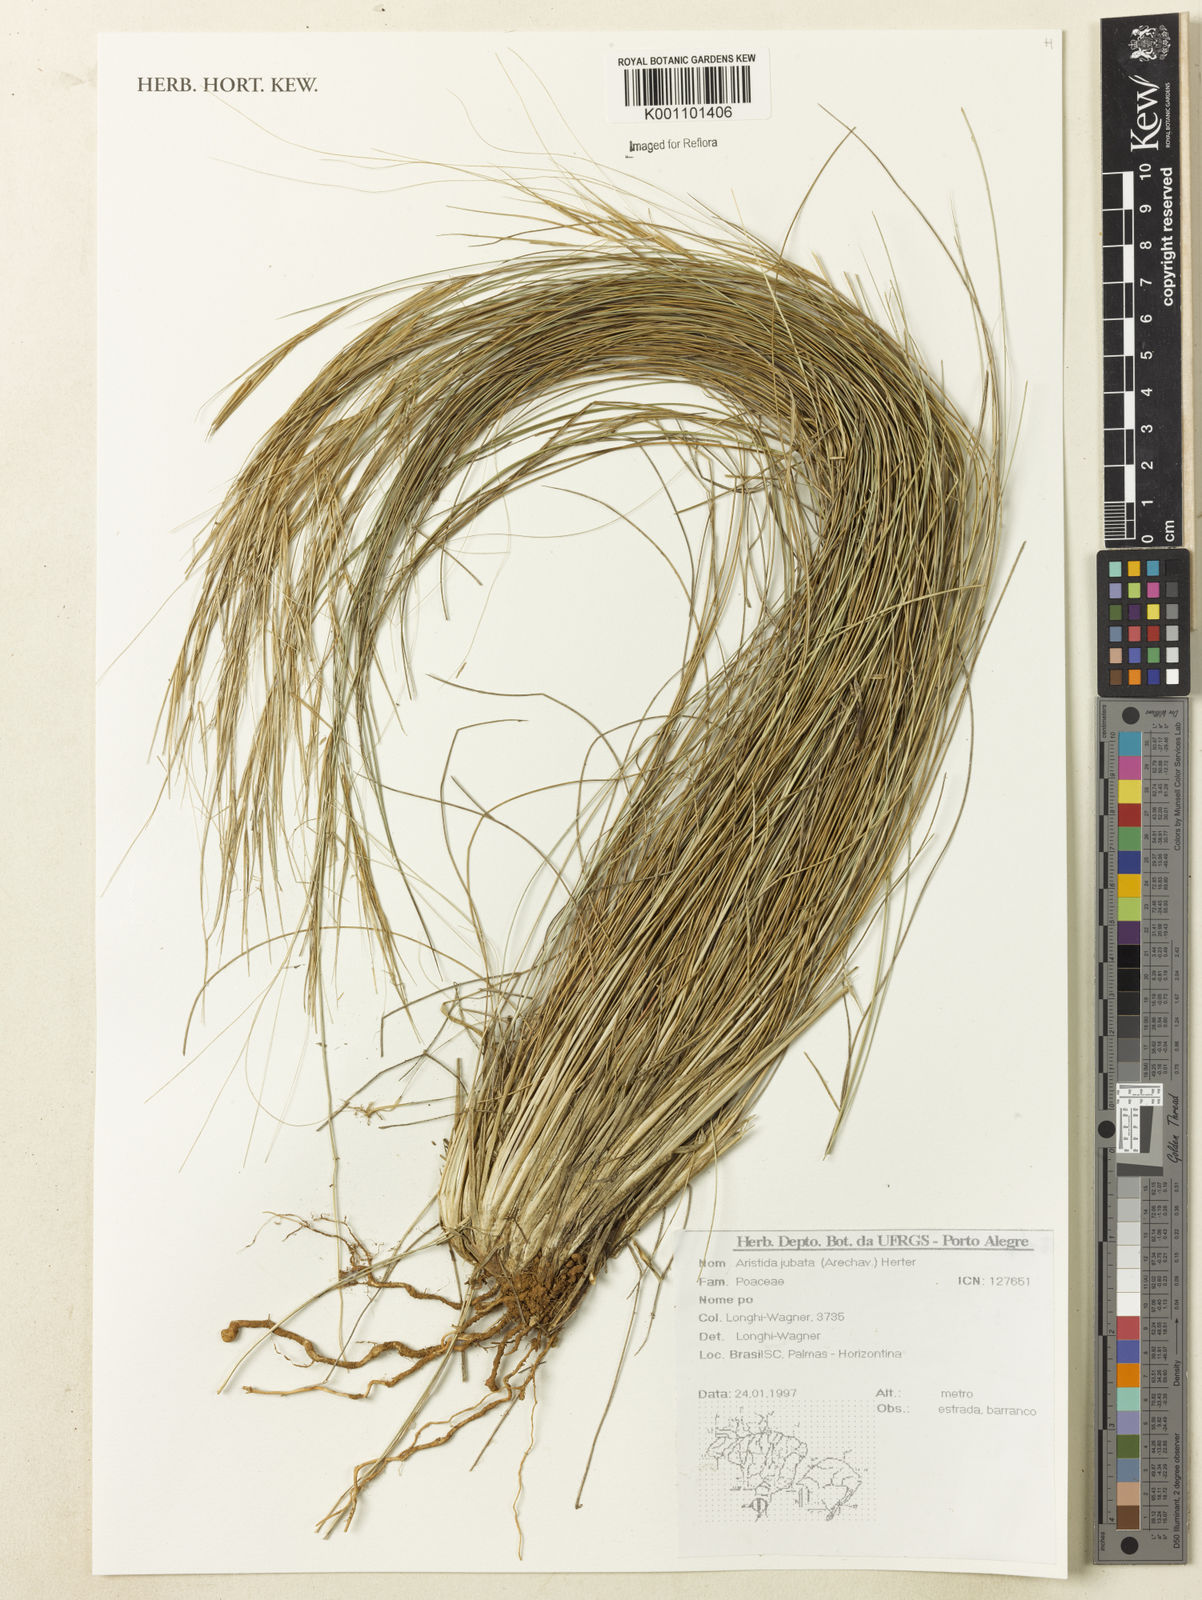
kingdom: Plantae
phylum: Tracheophyta
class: Liliopsida
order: Poales
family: Poaceae
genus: Aristida
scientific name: Aristida jubata
